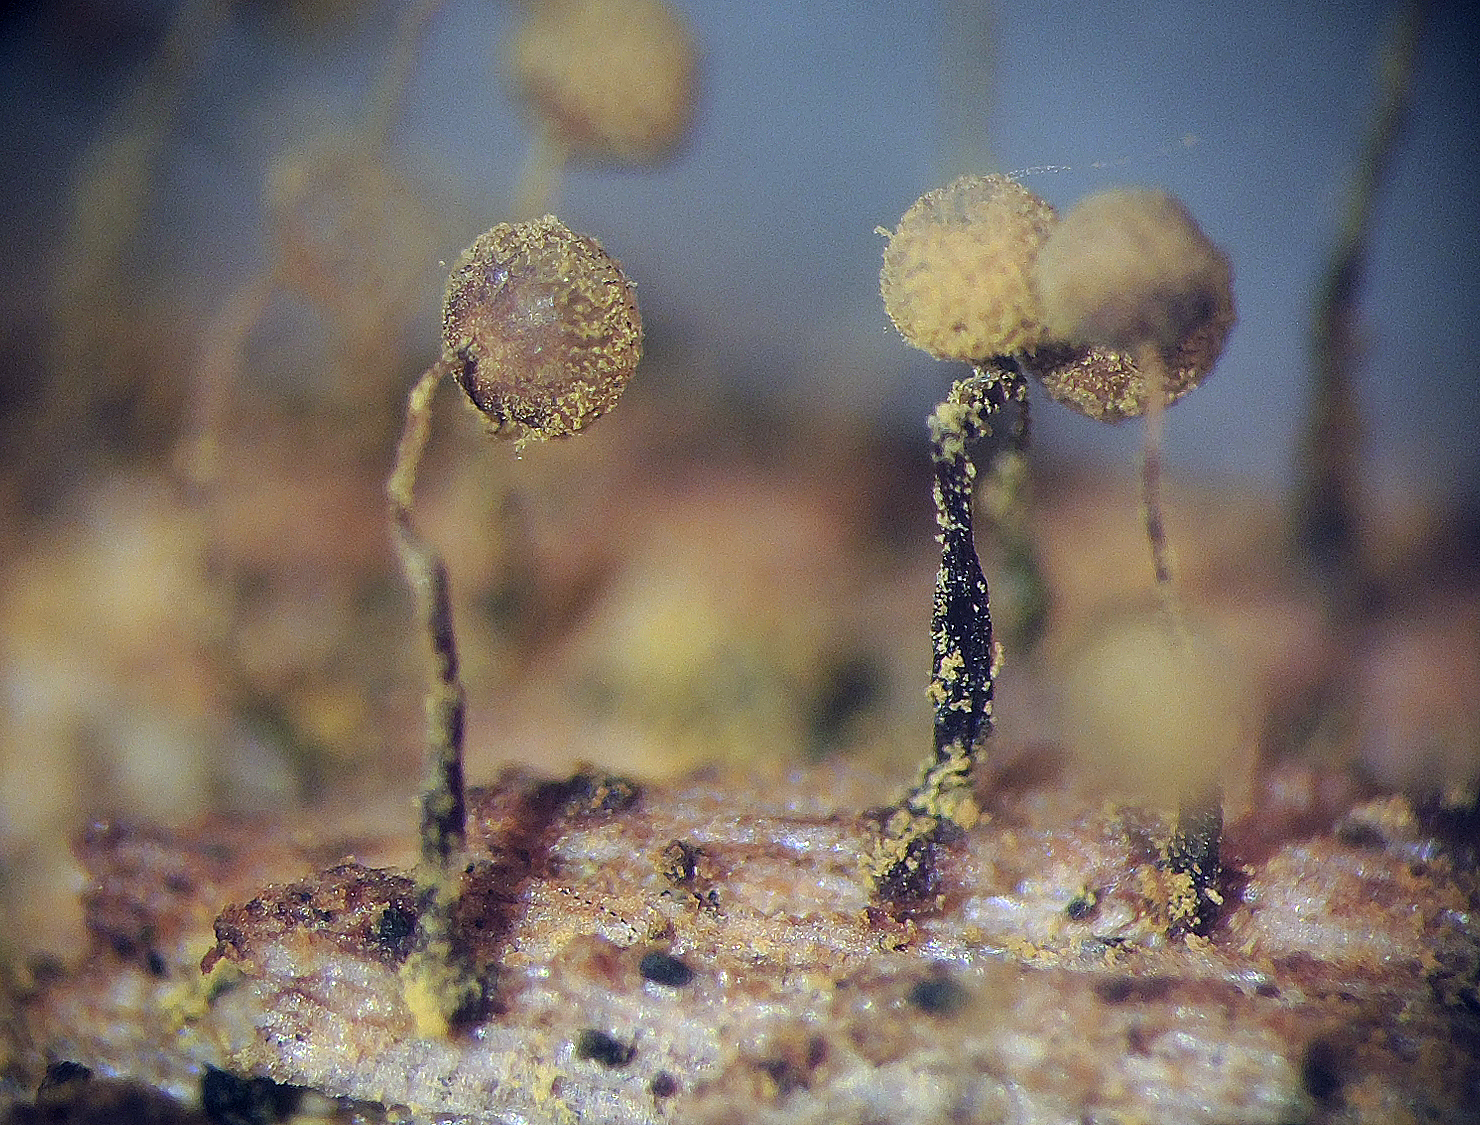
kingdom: Protozoa
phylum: Mycetozoa
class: Myxomycetes
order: Cribrariales
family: Cribrariaceae
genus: Cribraria
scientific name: Cribraria
